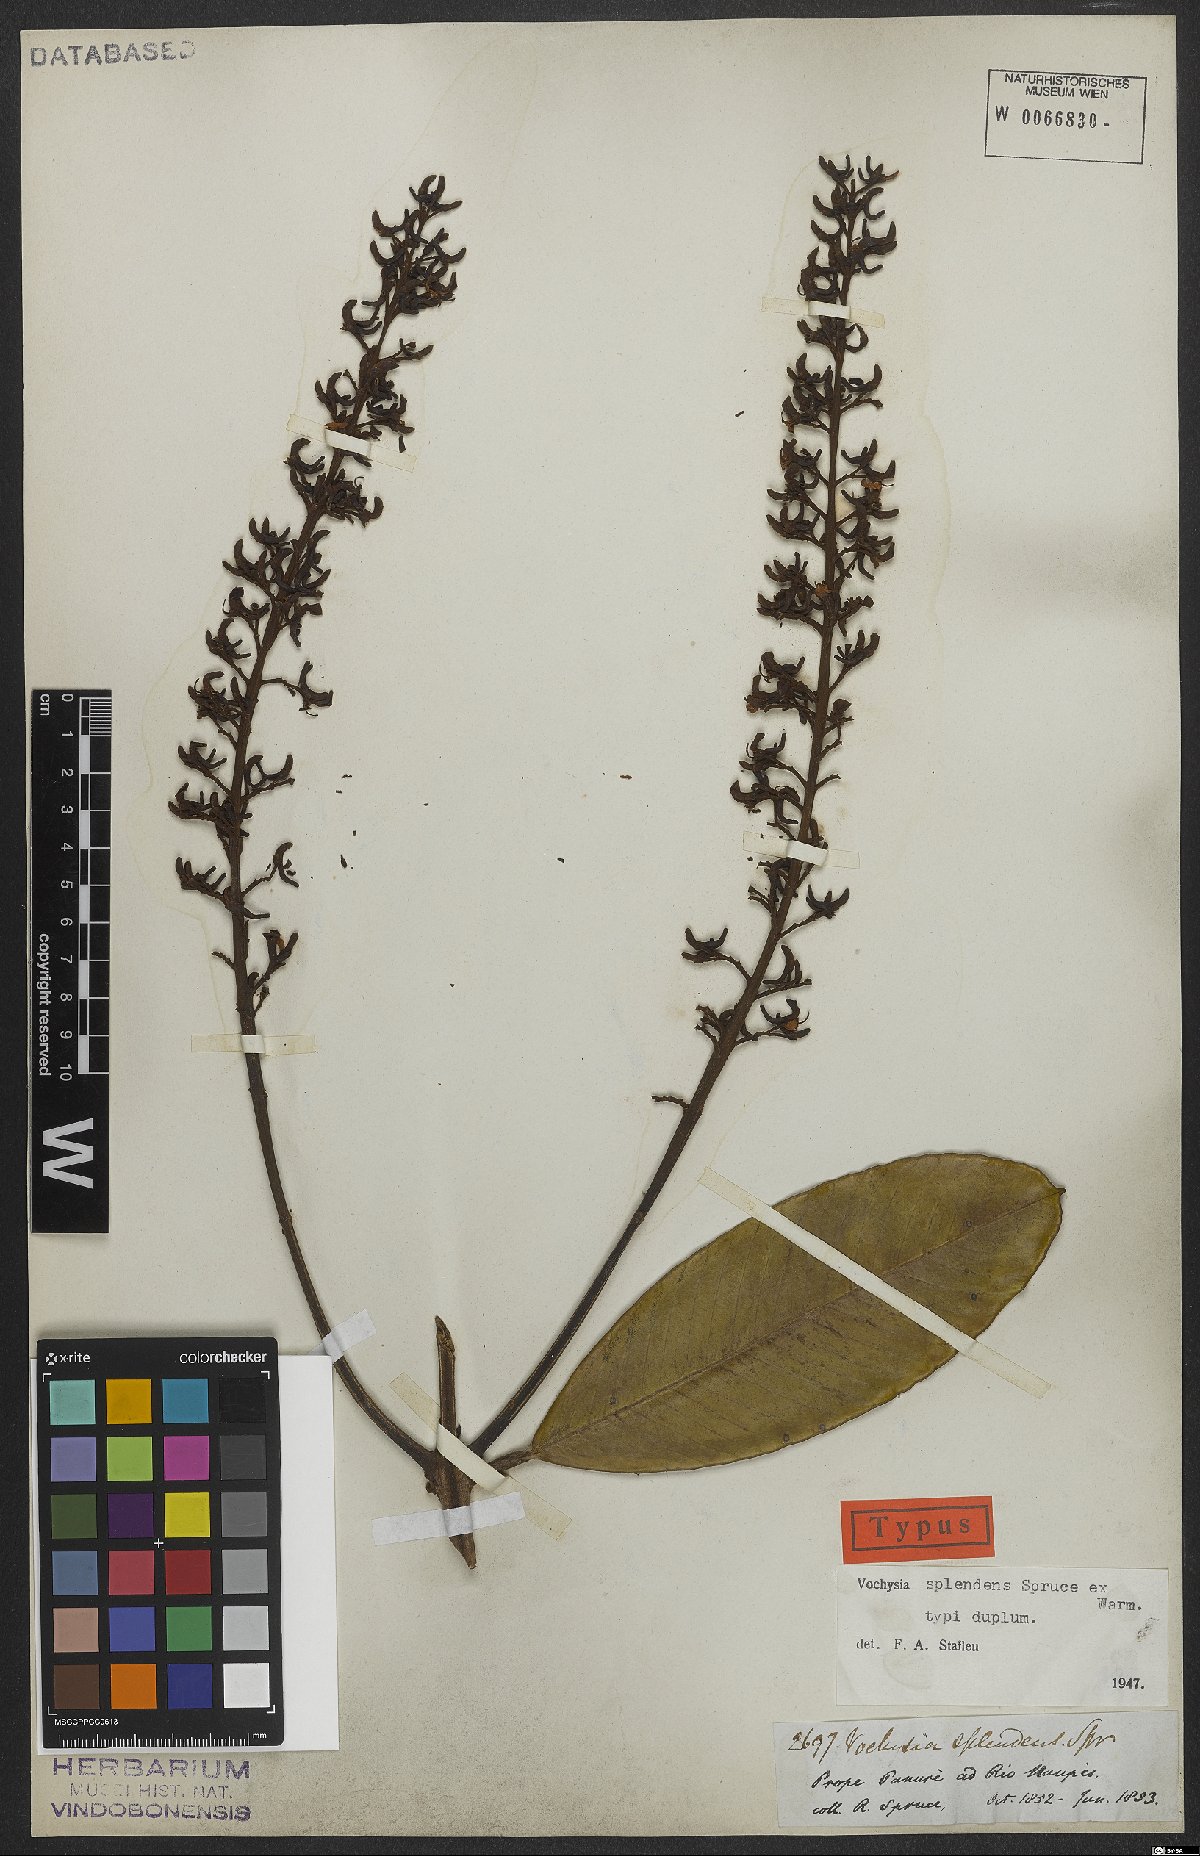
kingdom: Plantae
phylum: Tracheophyta
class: Magnoliopsida
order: Myrtales
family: Vochysiaceae
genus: Vochysia
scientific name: Vochysia splendens
